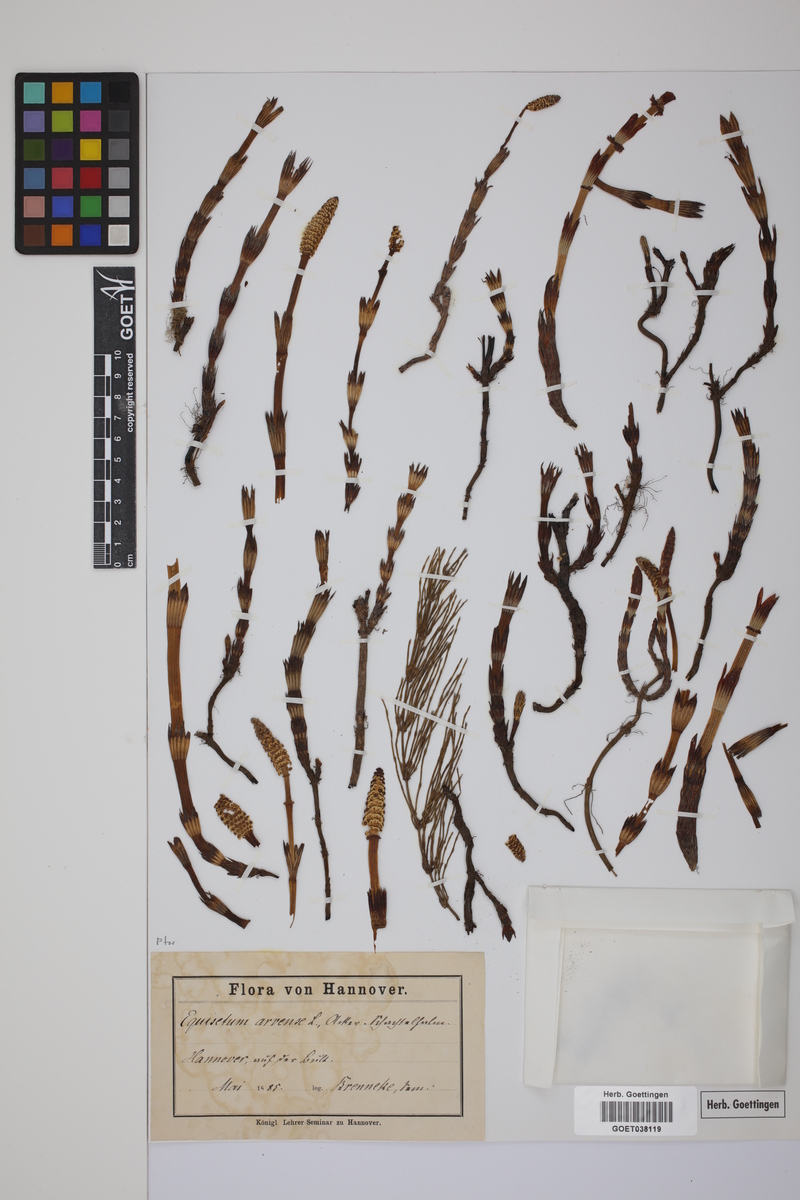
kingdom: Plantae
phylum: Tracheophyta
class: Polypodiopsida
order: Equisetales
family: Equisetaceae
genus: Equisetum
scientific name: Equisetum arvense
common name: Field horsetail
